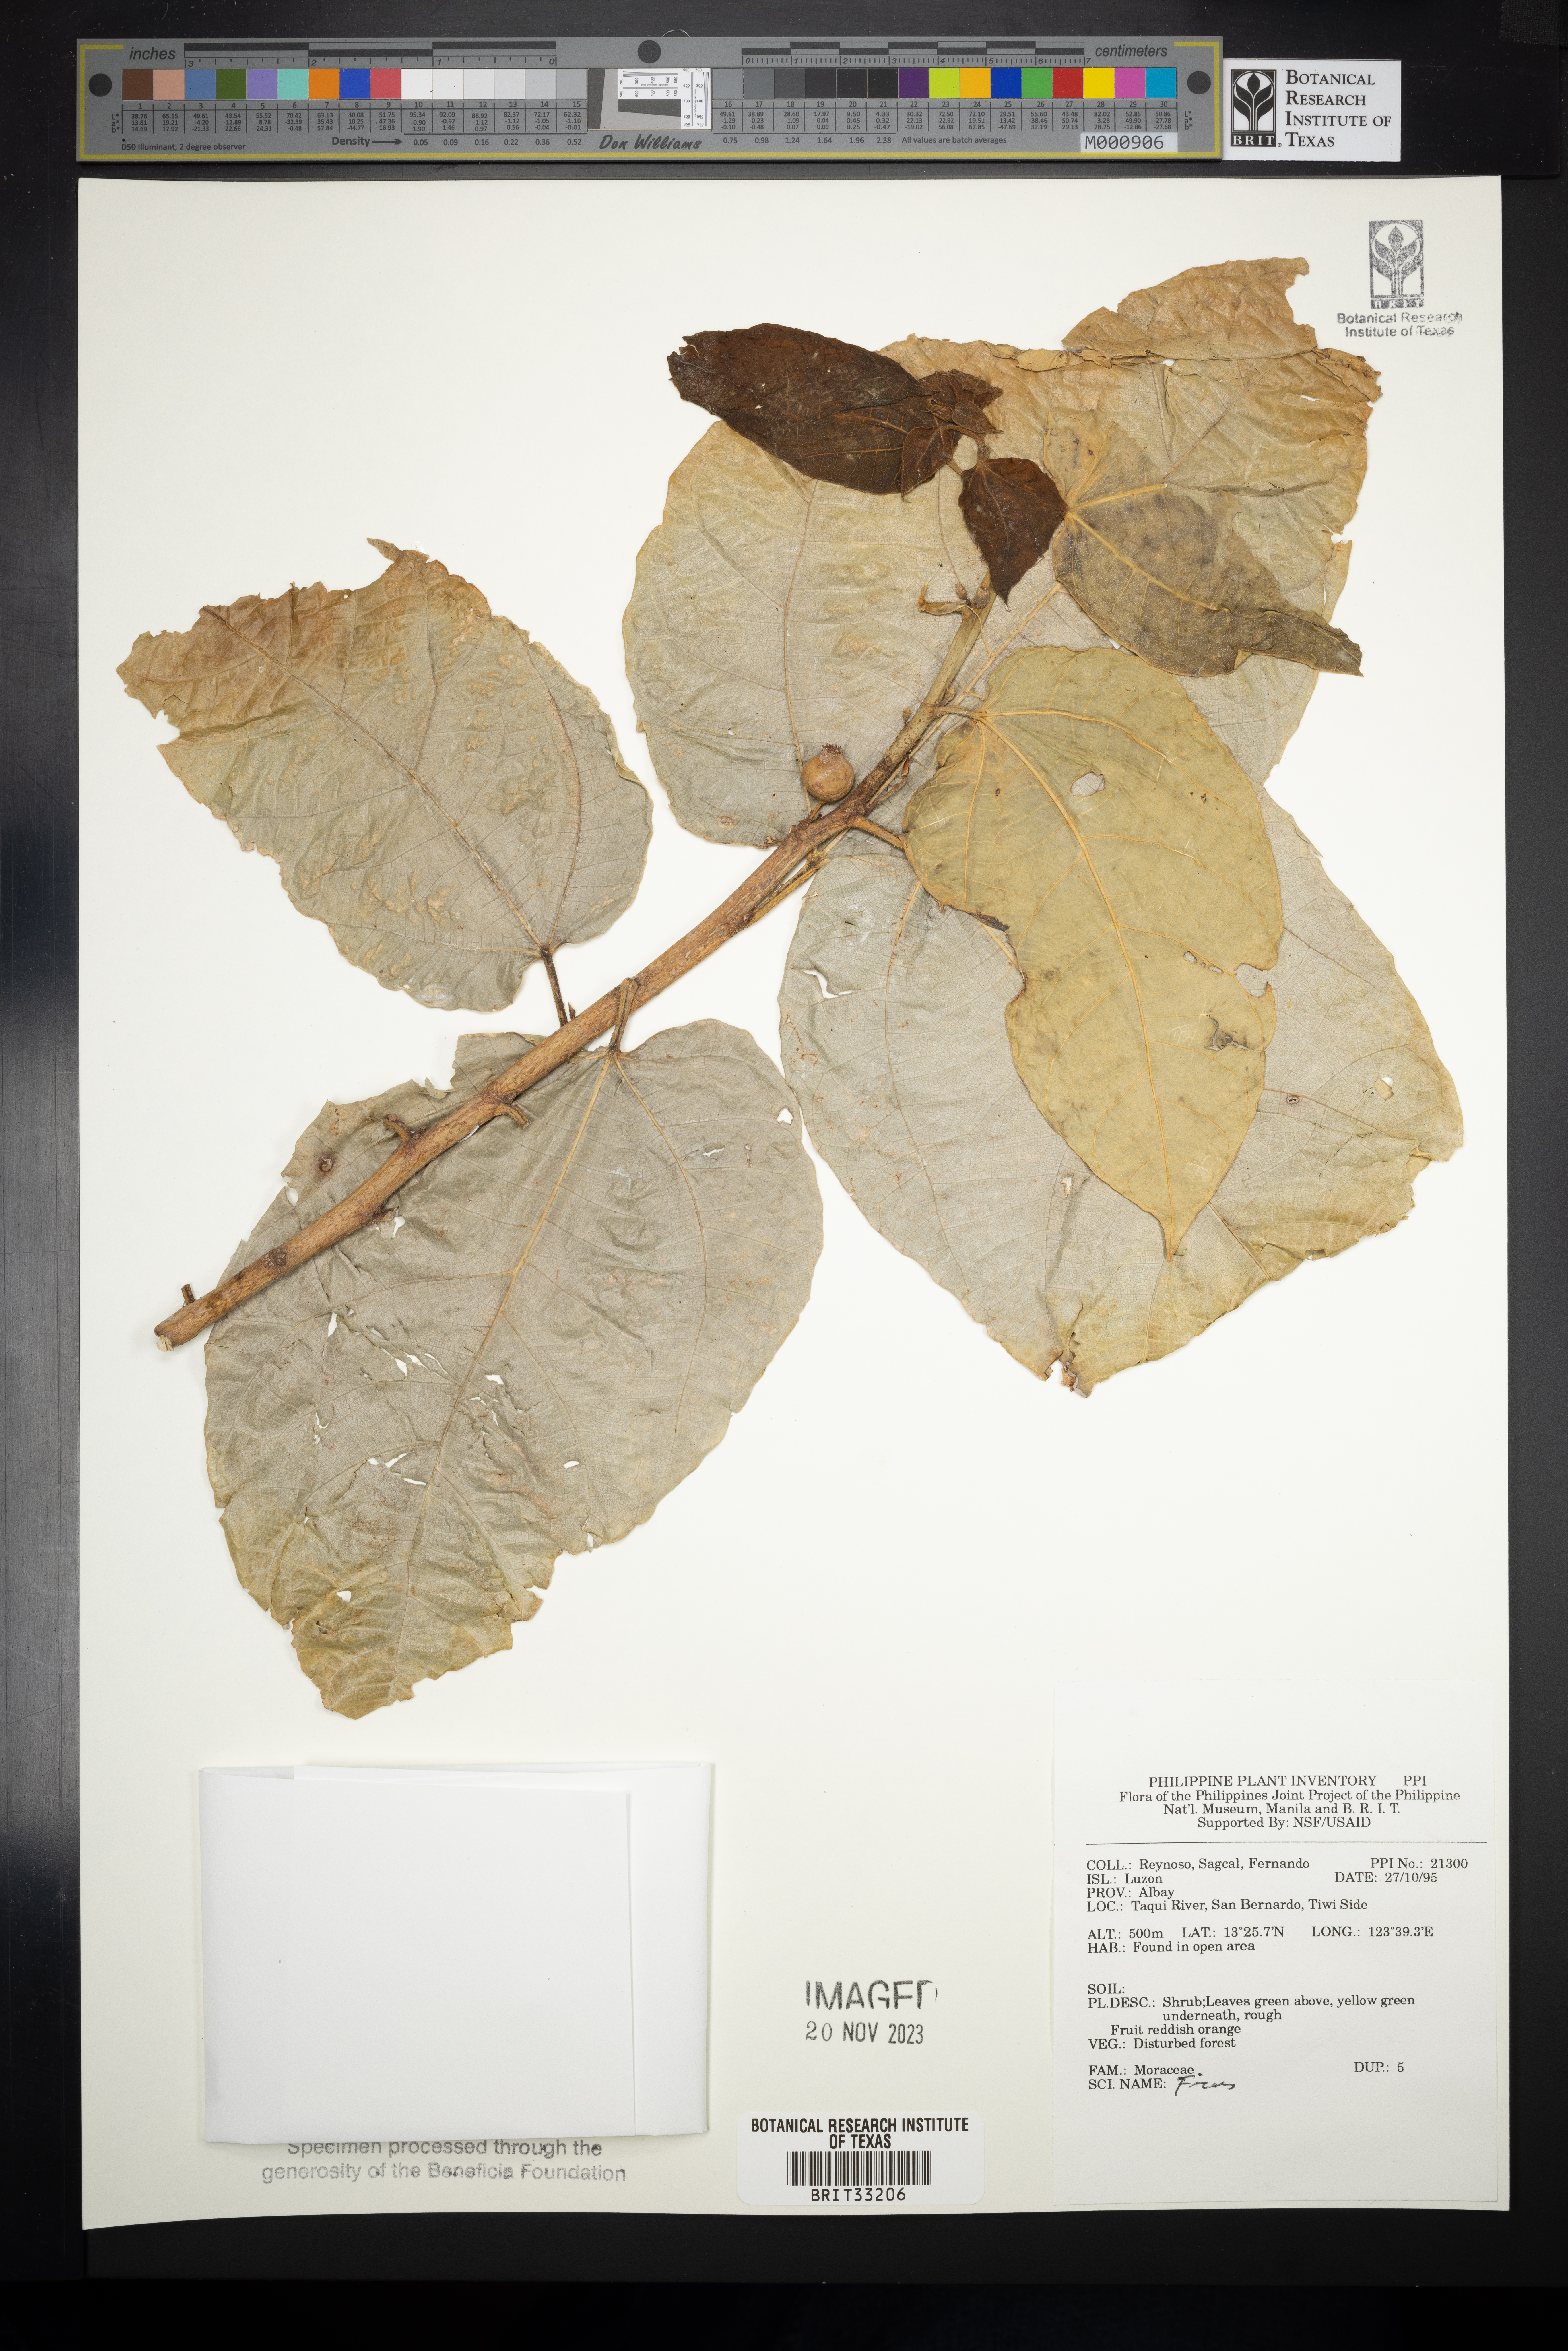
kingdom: Plantae
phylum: Tracheophyta
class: Magnoliopsida
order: Rosales
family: Moraceae
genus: Ficus
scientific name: Ficus
